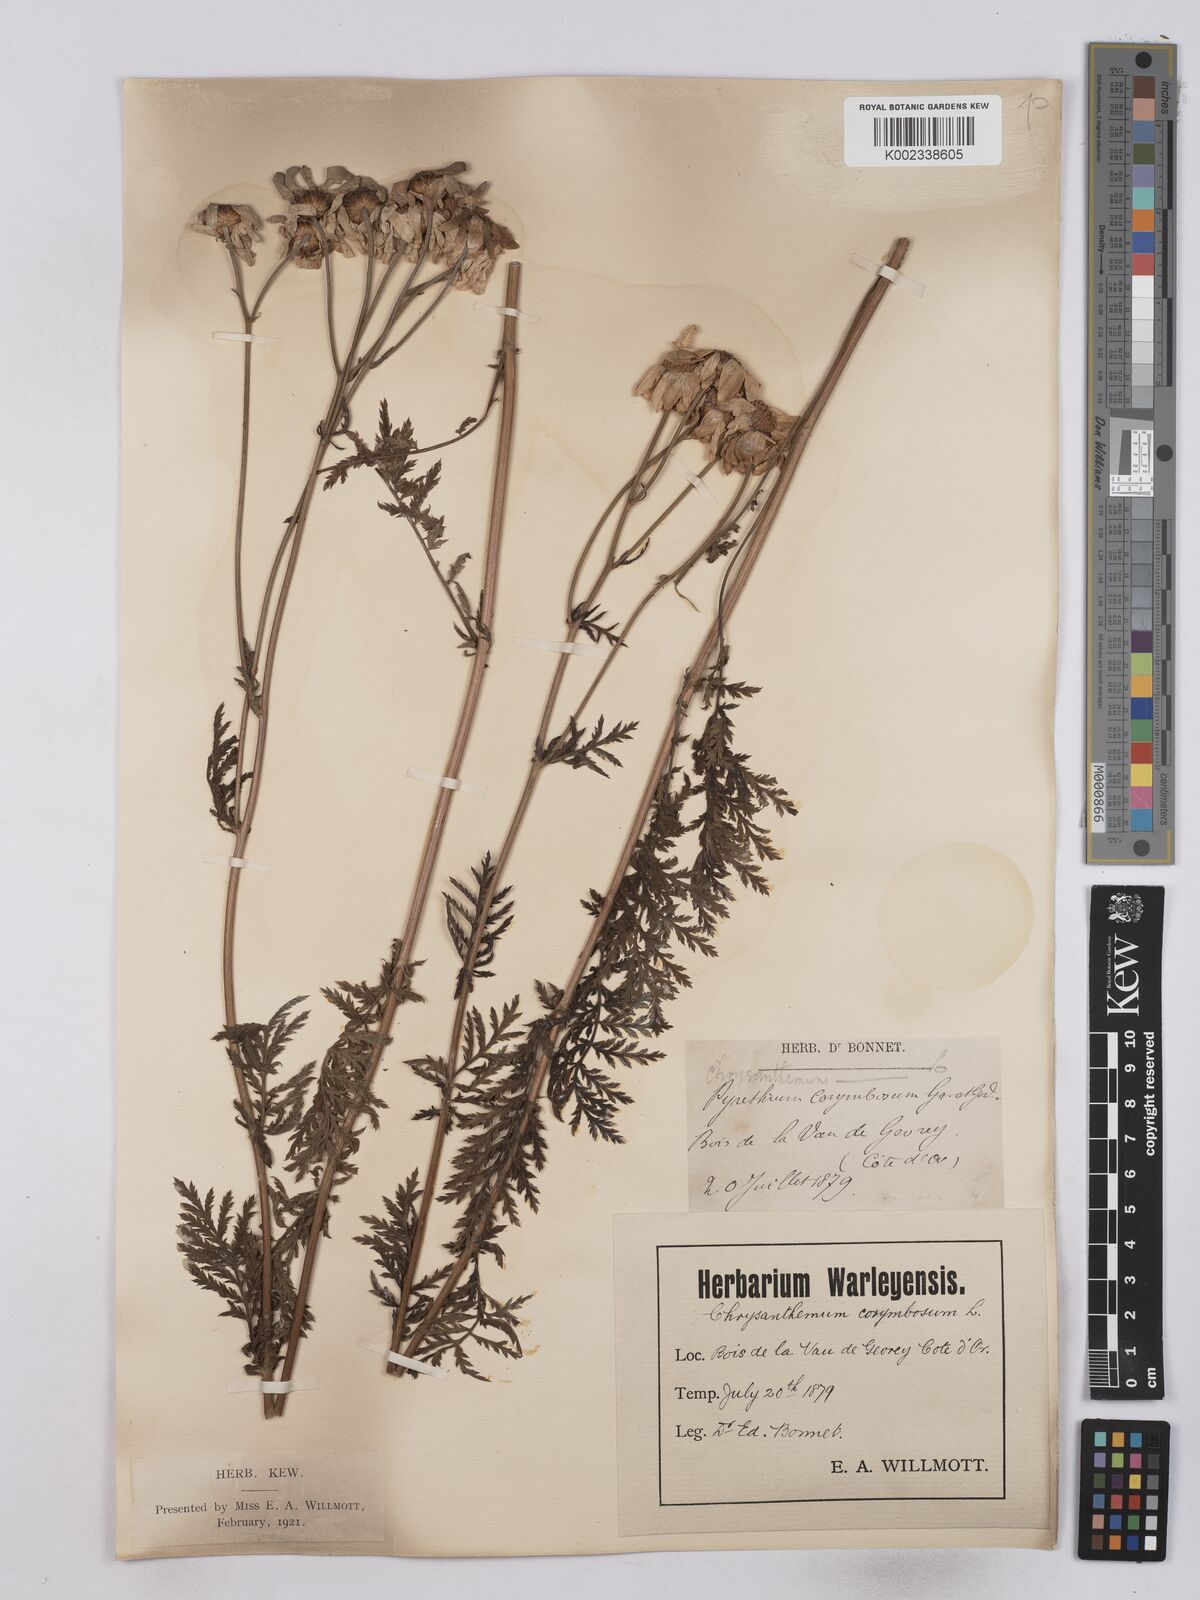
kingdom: Plantae
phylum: Tracheophyta
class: Magnoliopsida
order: Asterales
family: Asteraceae
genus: Tanacetum
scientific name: Tanacetum corymbosum
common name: Scentless feverfew
